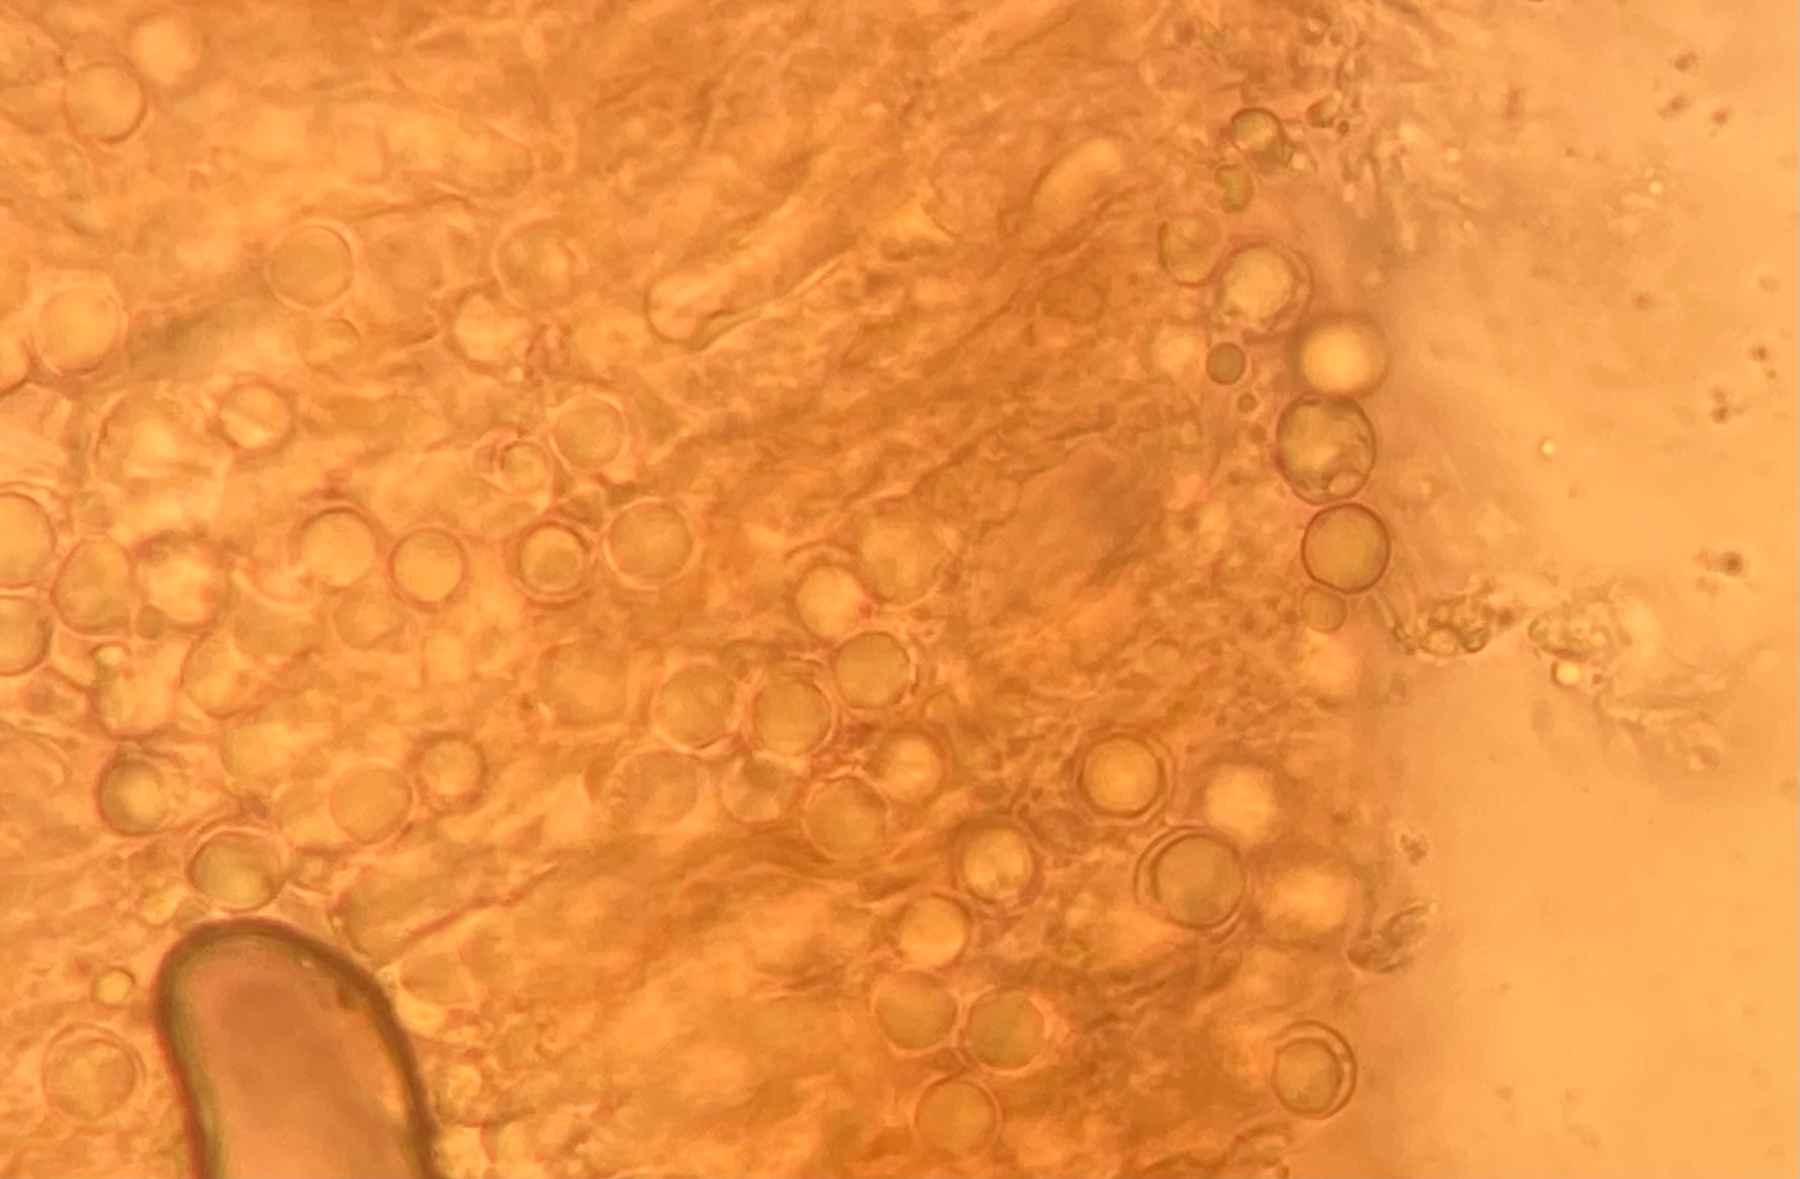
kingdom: Fungi
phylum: Basidiomycota
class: Agaricomycetes
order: Cantharellales
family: Clavulinaceae
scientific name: Clavulinaceae
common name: troldkøllefamilien
